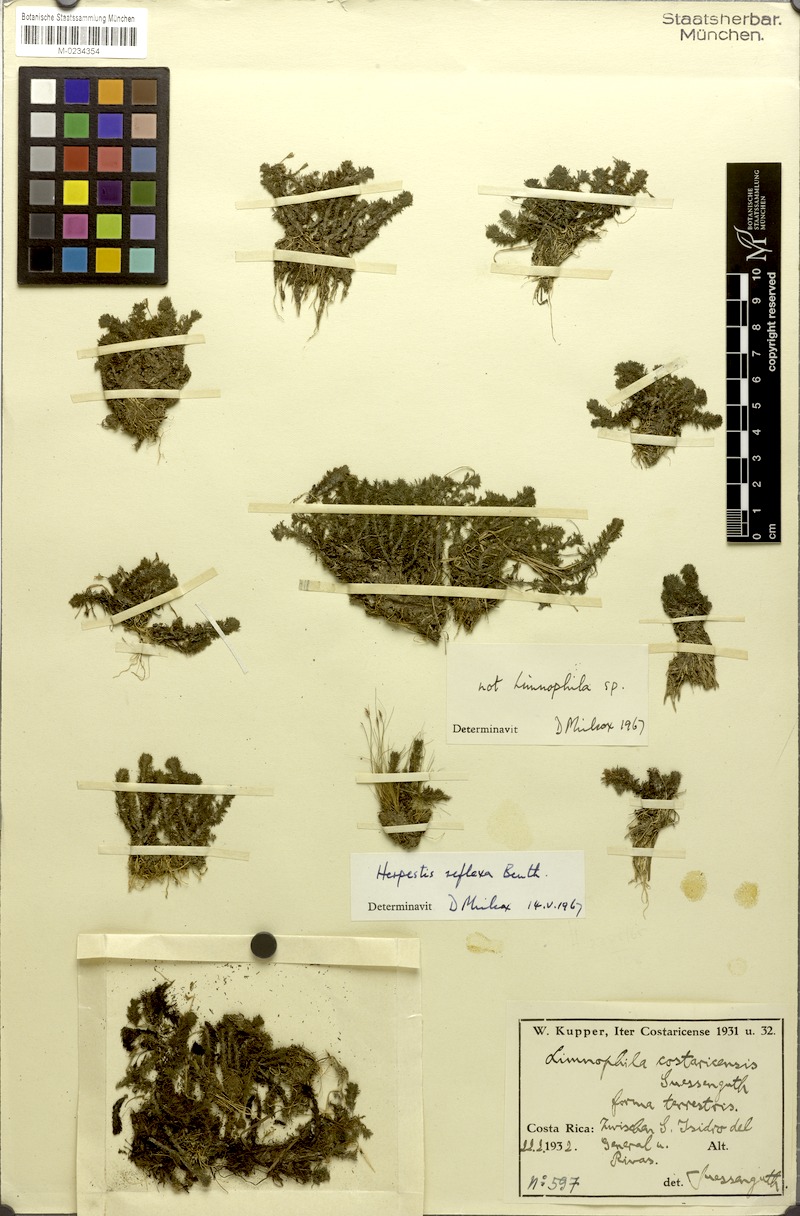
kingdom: Plantae
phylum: Tracheophyta
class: Magnoliopsida
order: Lamiales
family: Plantaginaceae
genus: Bacopa
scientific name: Bacopa reflexa
